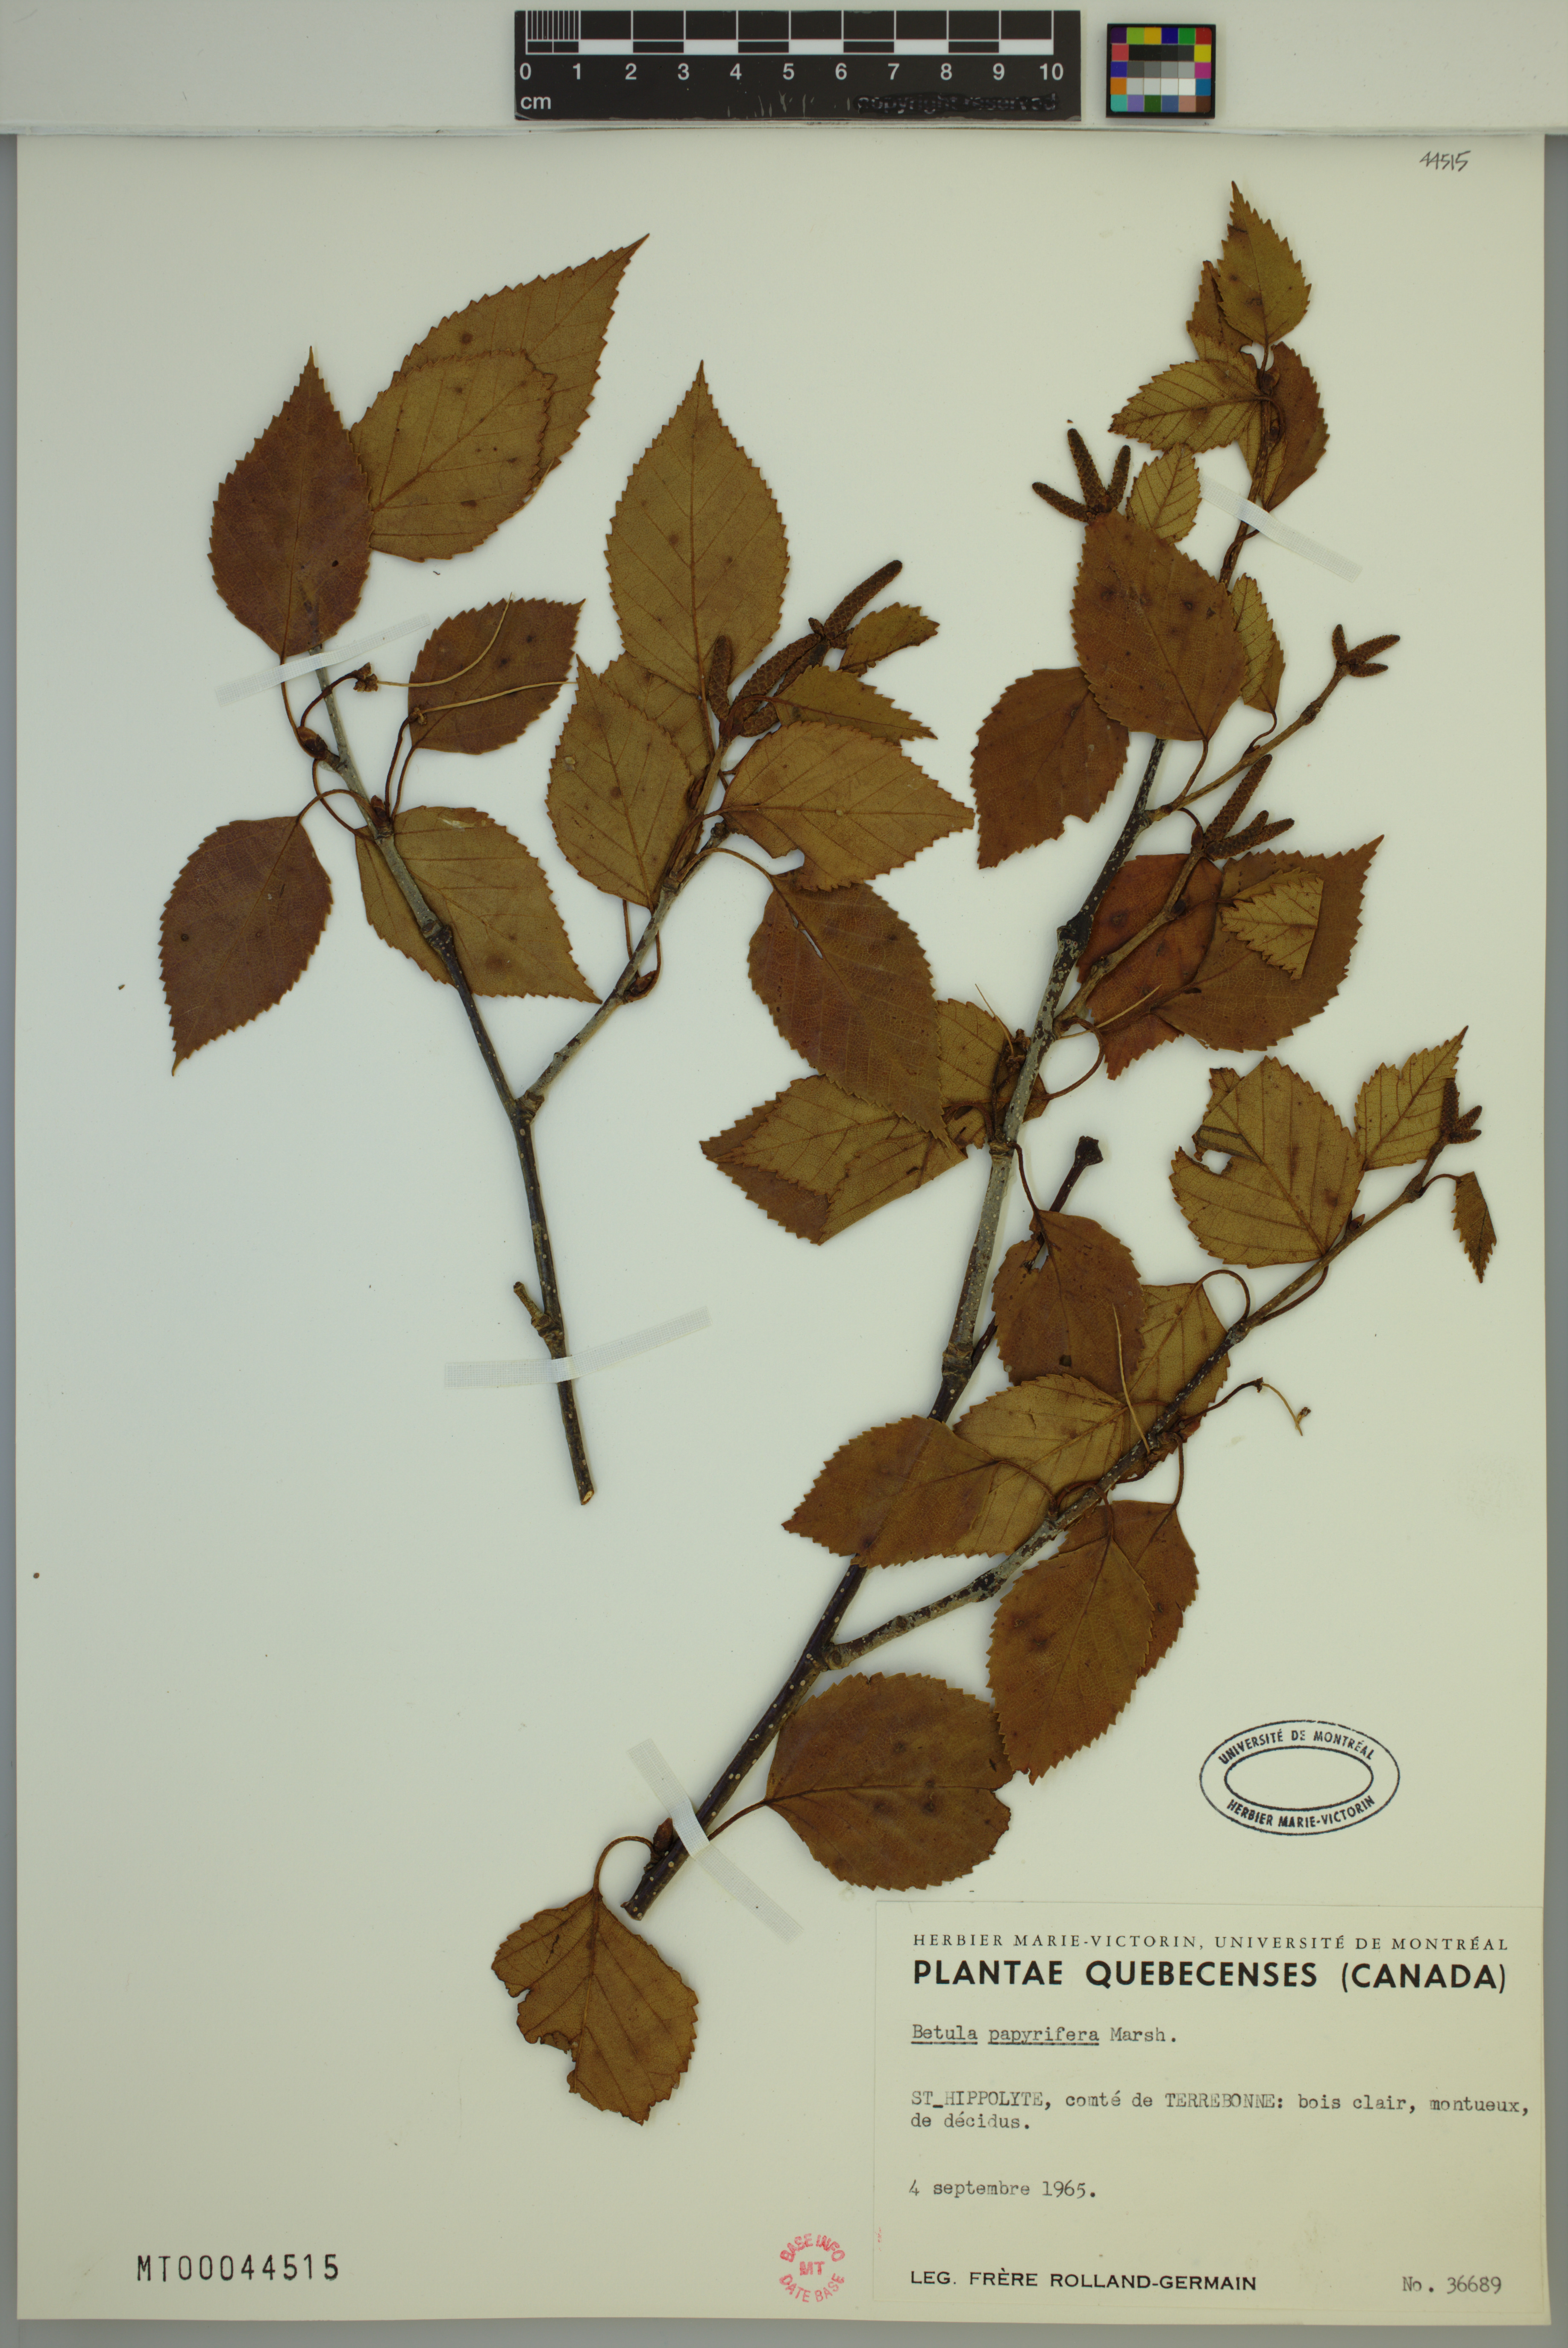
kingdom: Plantae
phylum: Tracheophyta
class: Magnoliopsida
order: Fagales
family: Betulaceae
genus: Betula
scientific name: Betula papyrifera
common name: Paper birch
